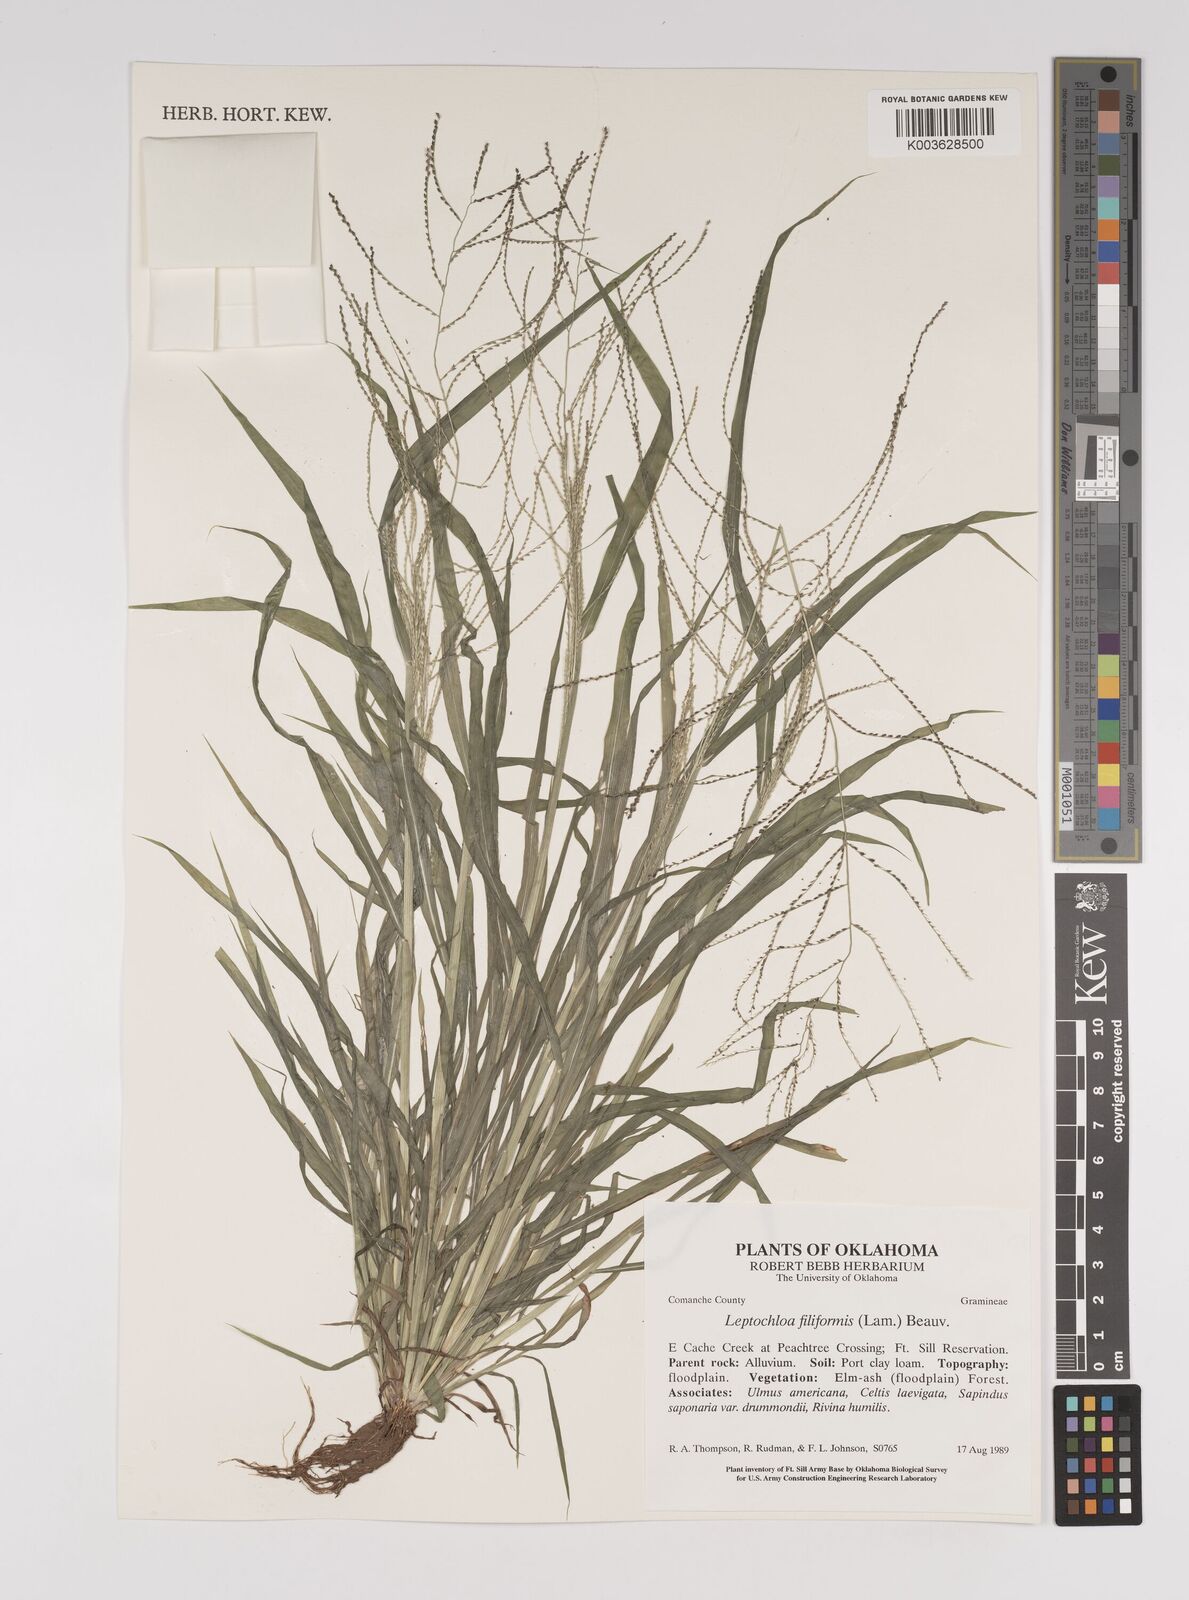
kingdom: Plantae
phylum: Tracheophyta
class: Liliopsida
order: Poales
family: Poaceae
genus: Leptochloa
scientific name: Leptochloa panicea
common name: Mucronate sprangletop
